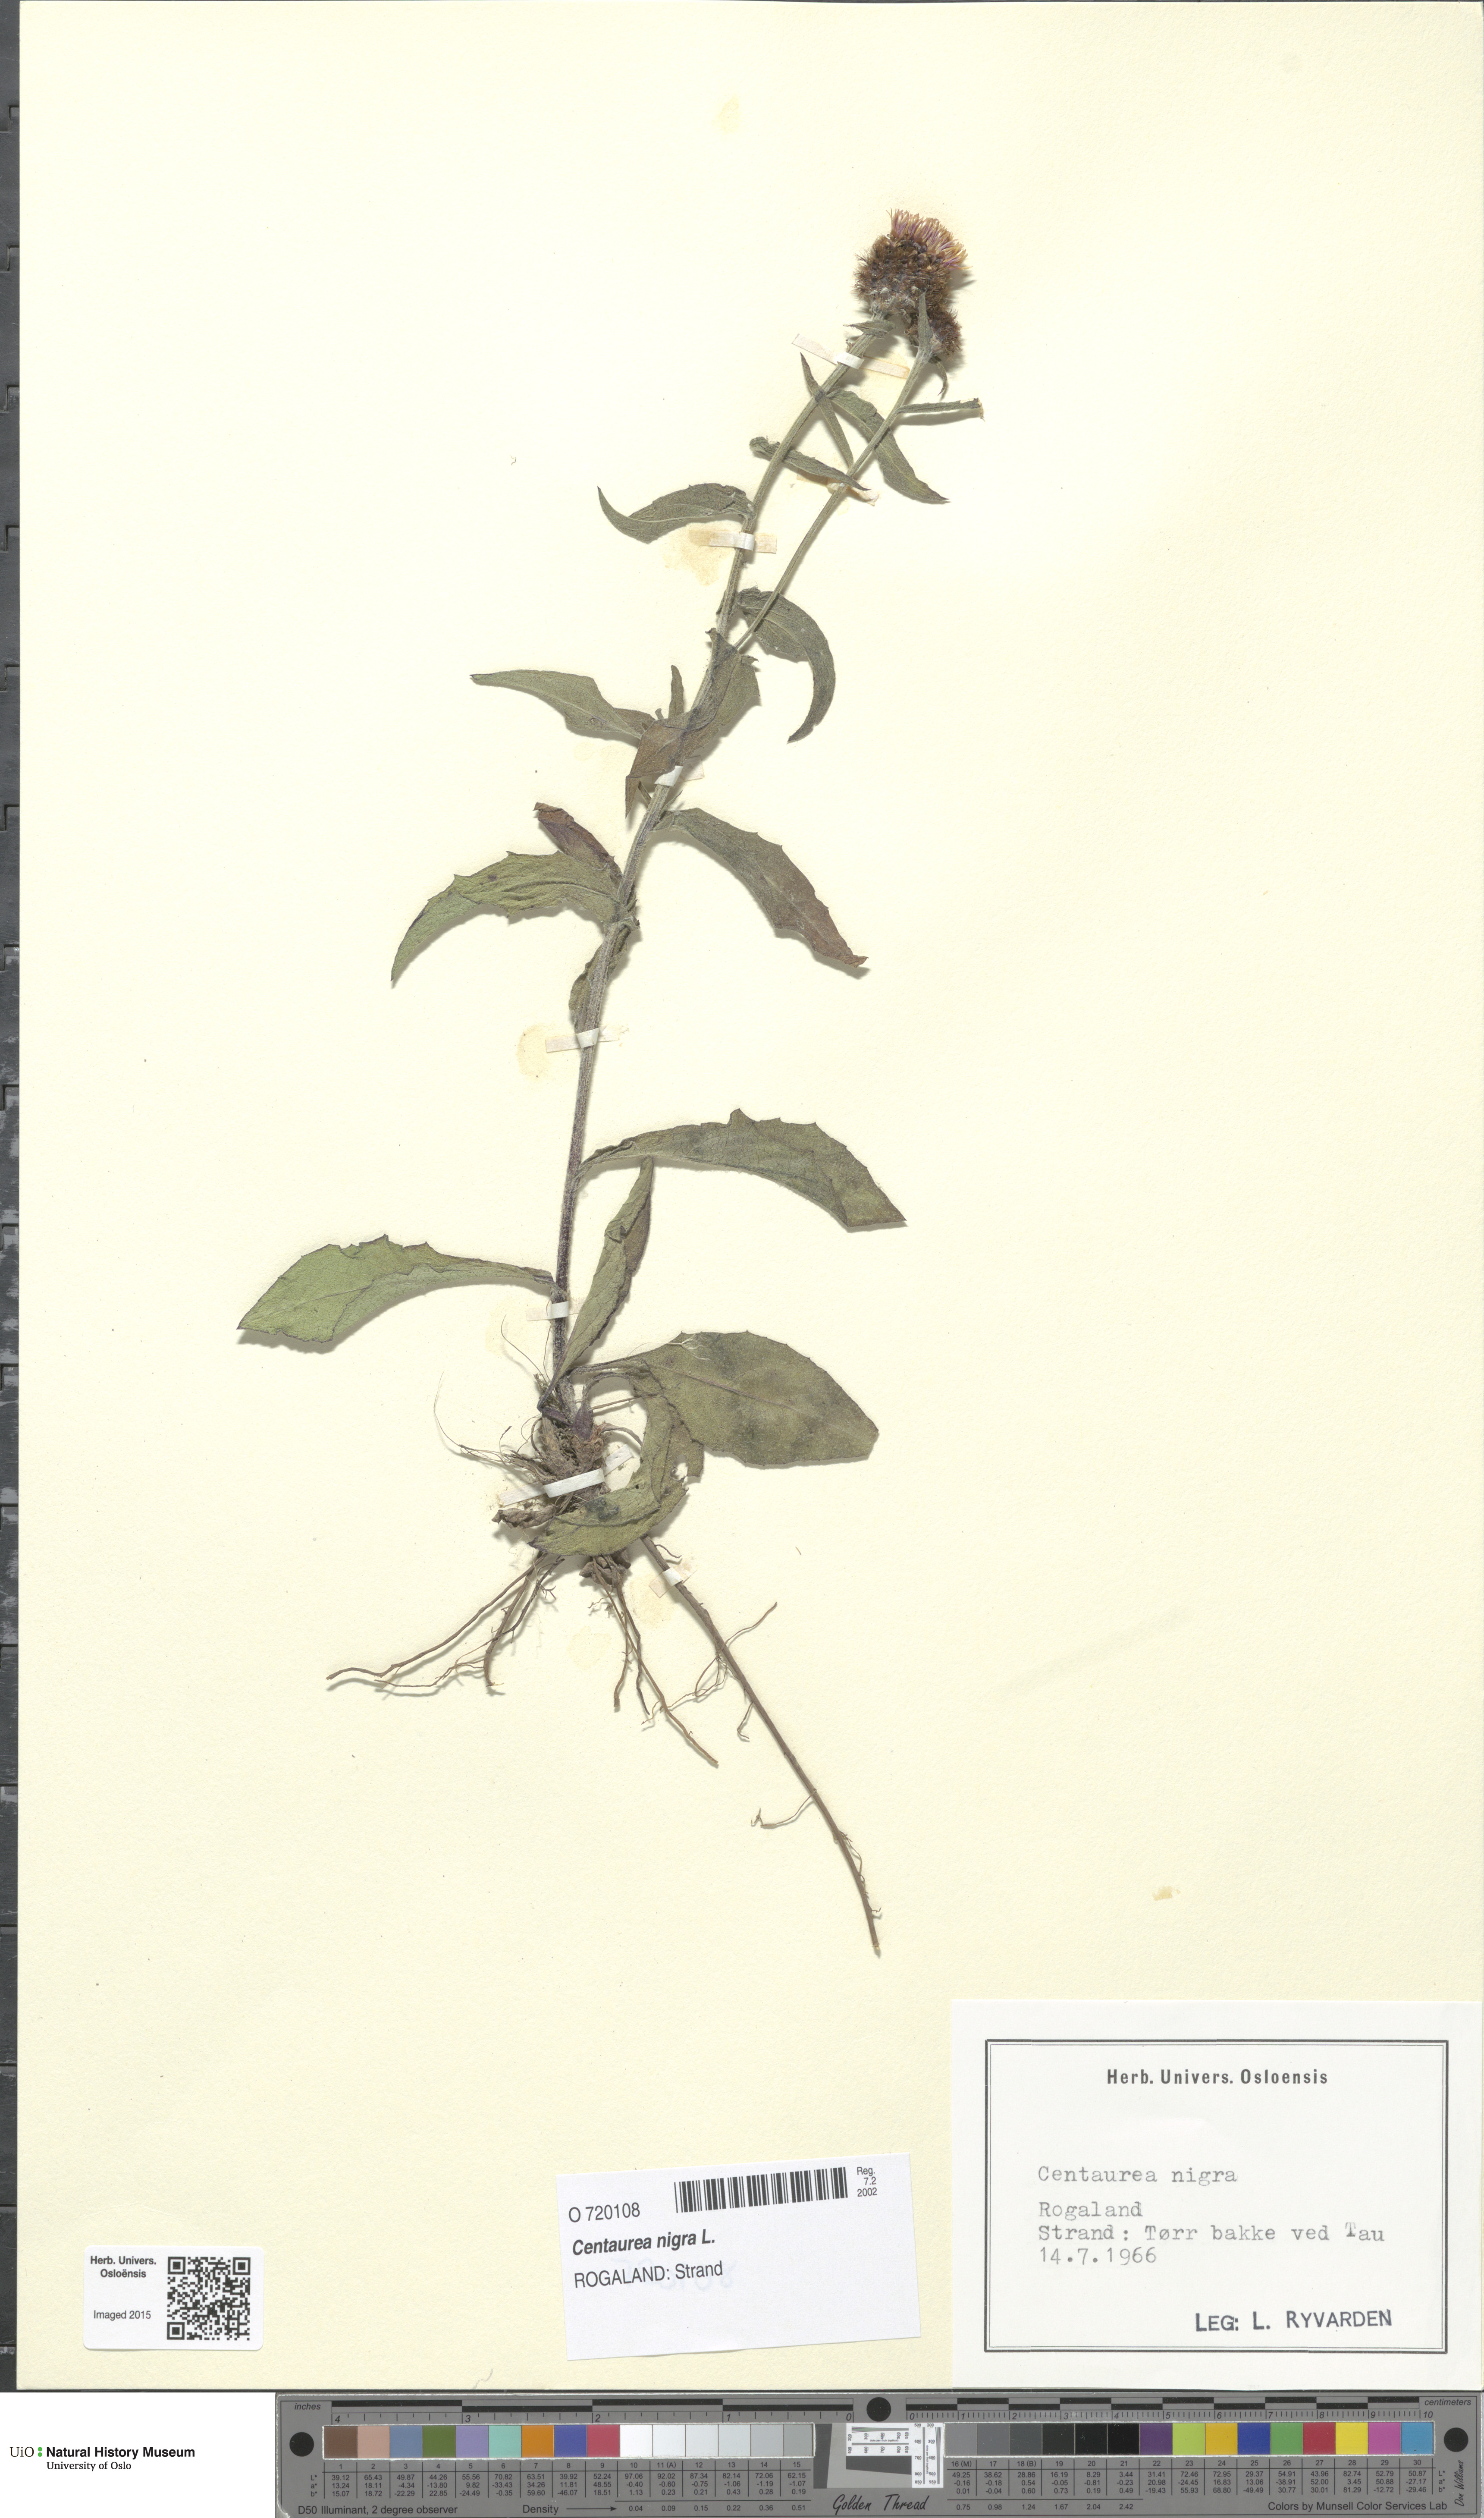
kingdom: Plantae
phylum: Tracheophyta
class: Magnoliopsida
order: Asterales
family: Asteraceae
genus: Centaurea
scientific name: Centaurea nigra
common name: Lesser knapweed
